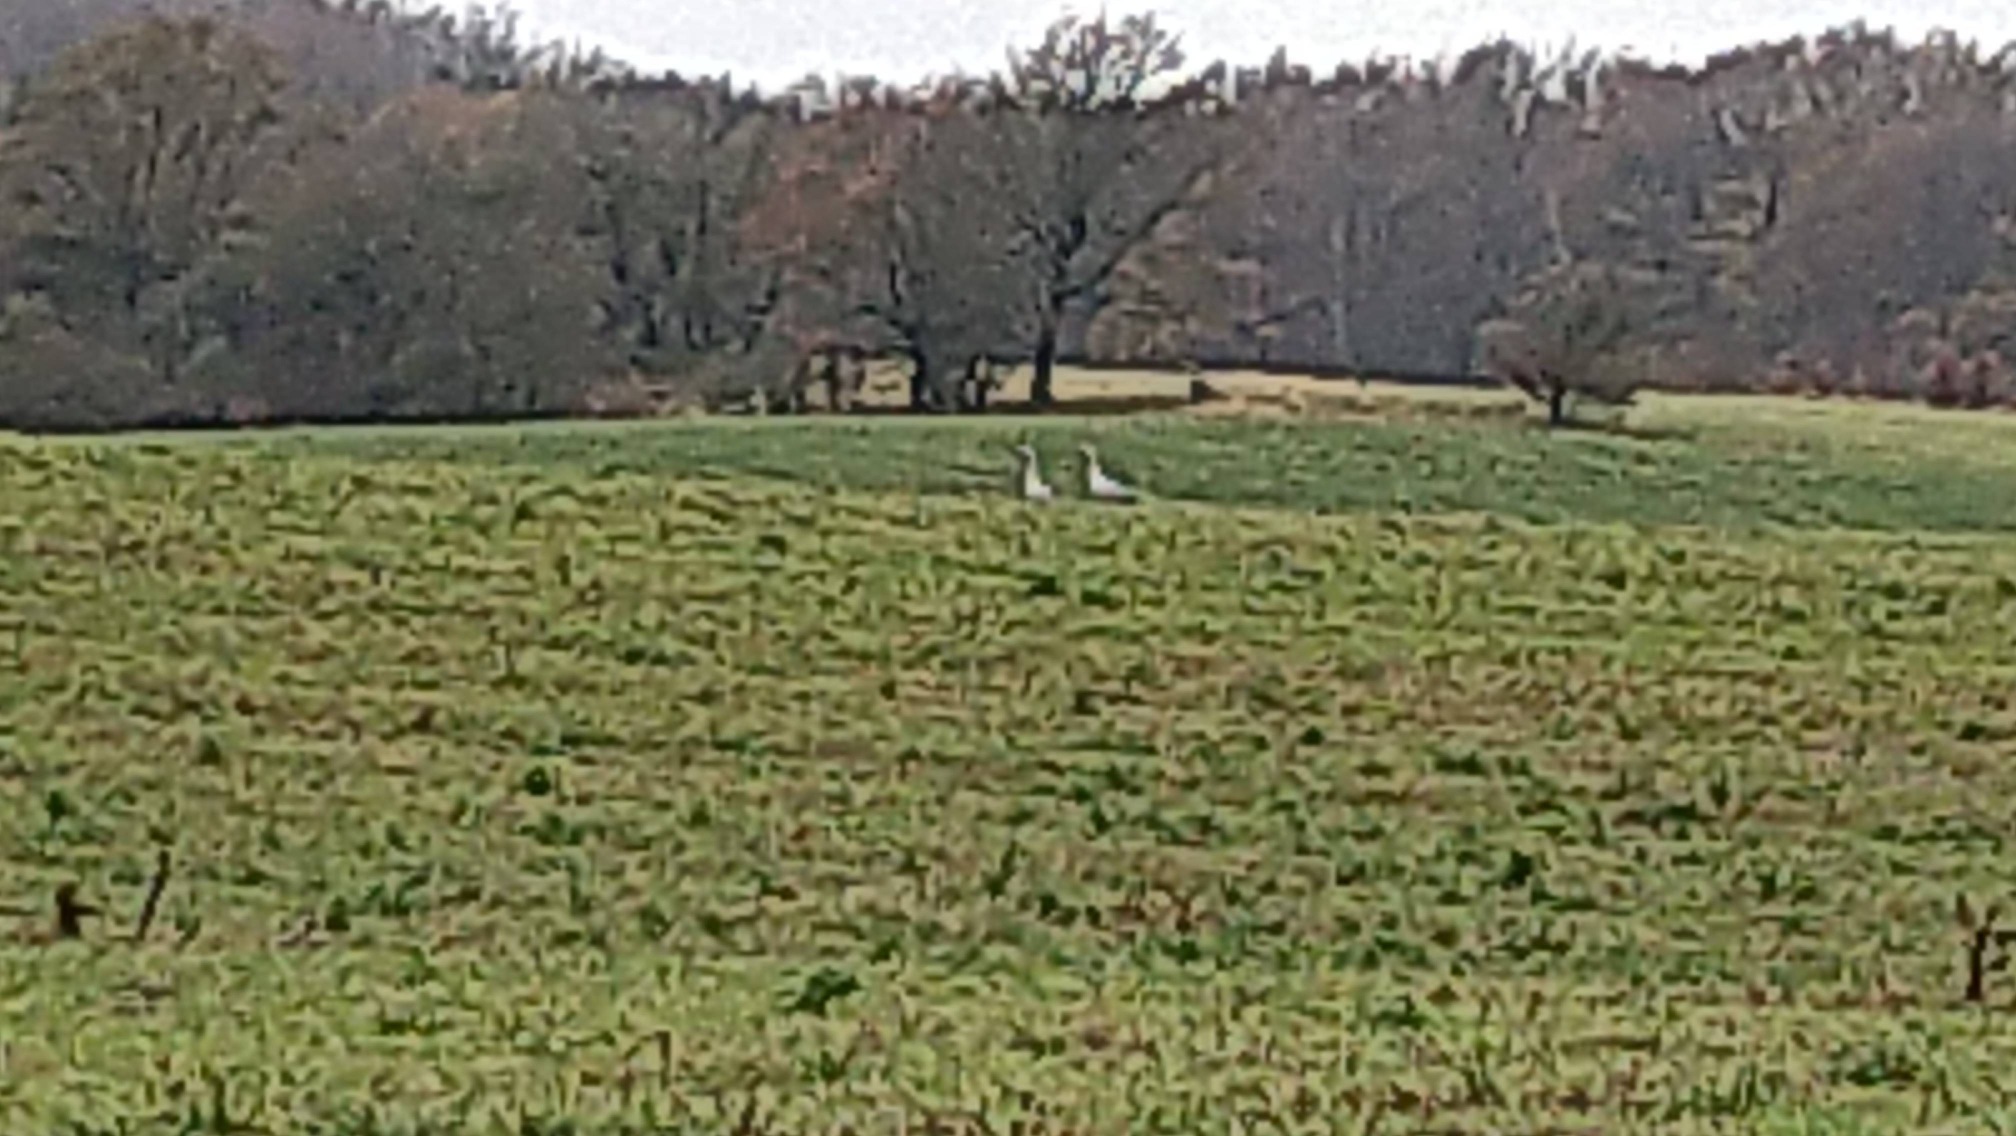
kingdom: Animalia
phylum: Chordata
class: Aves
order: Gruiformes
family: Gruidae
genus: Grus
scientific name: Grus grus
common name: Trane
